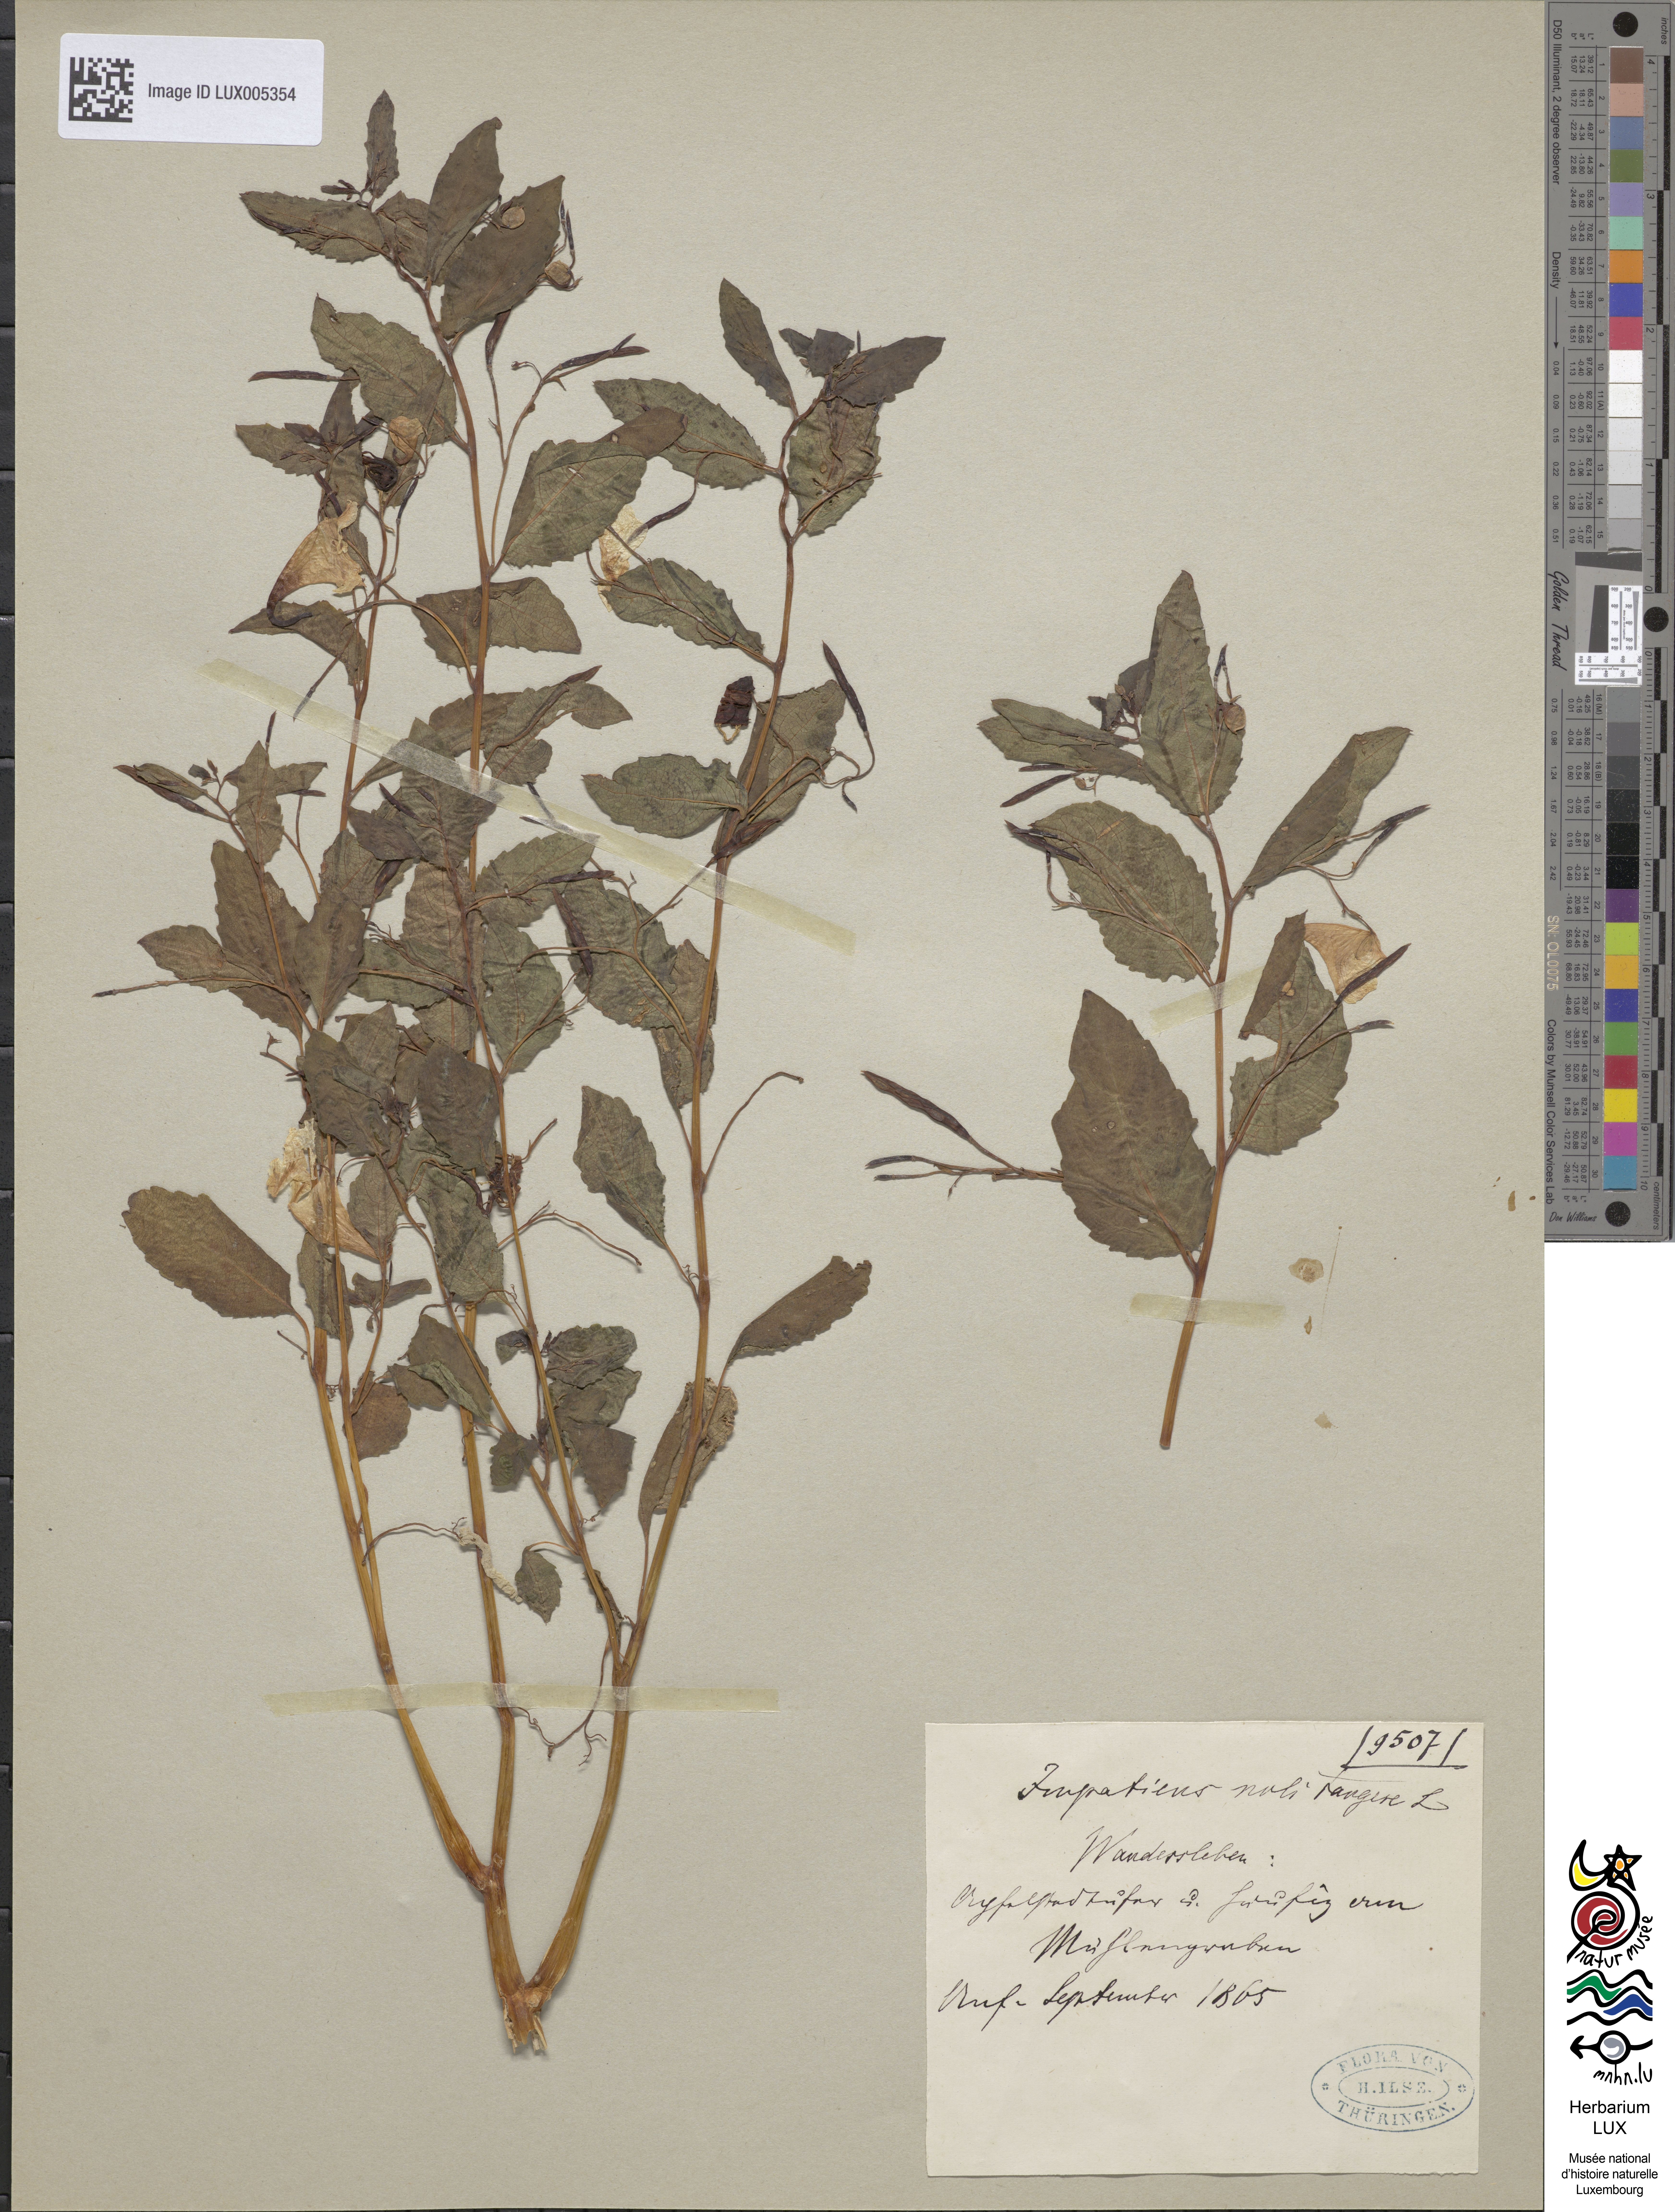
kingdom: Plantae
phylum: Tracheophyta
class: Magnoliopsida
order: Ericales
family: Balsaminaceae
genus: Impatiens
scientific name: Impatiens noli-tangere
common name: Touch-me-not balsam
